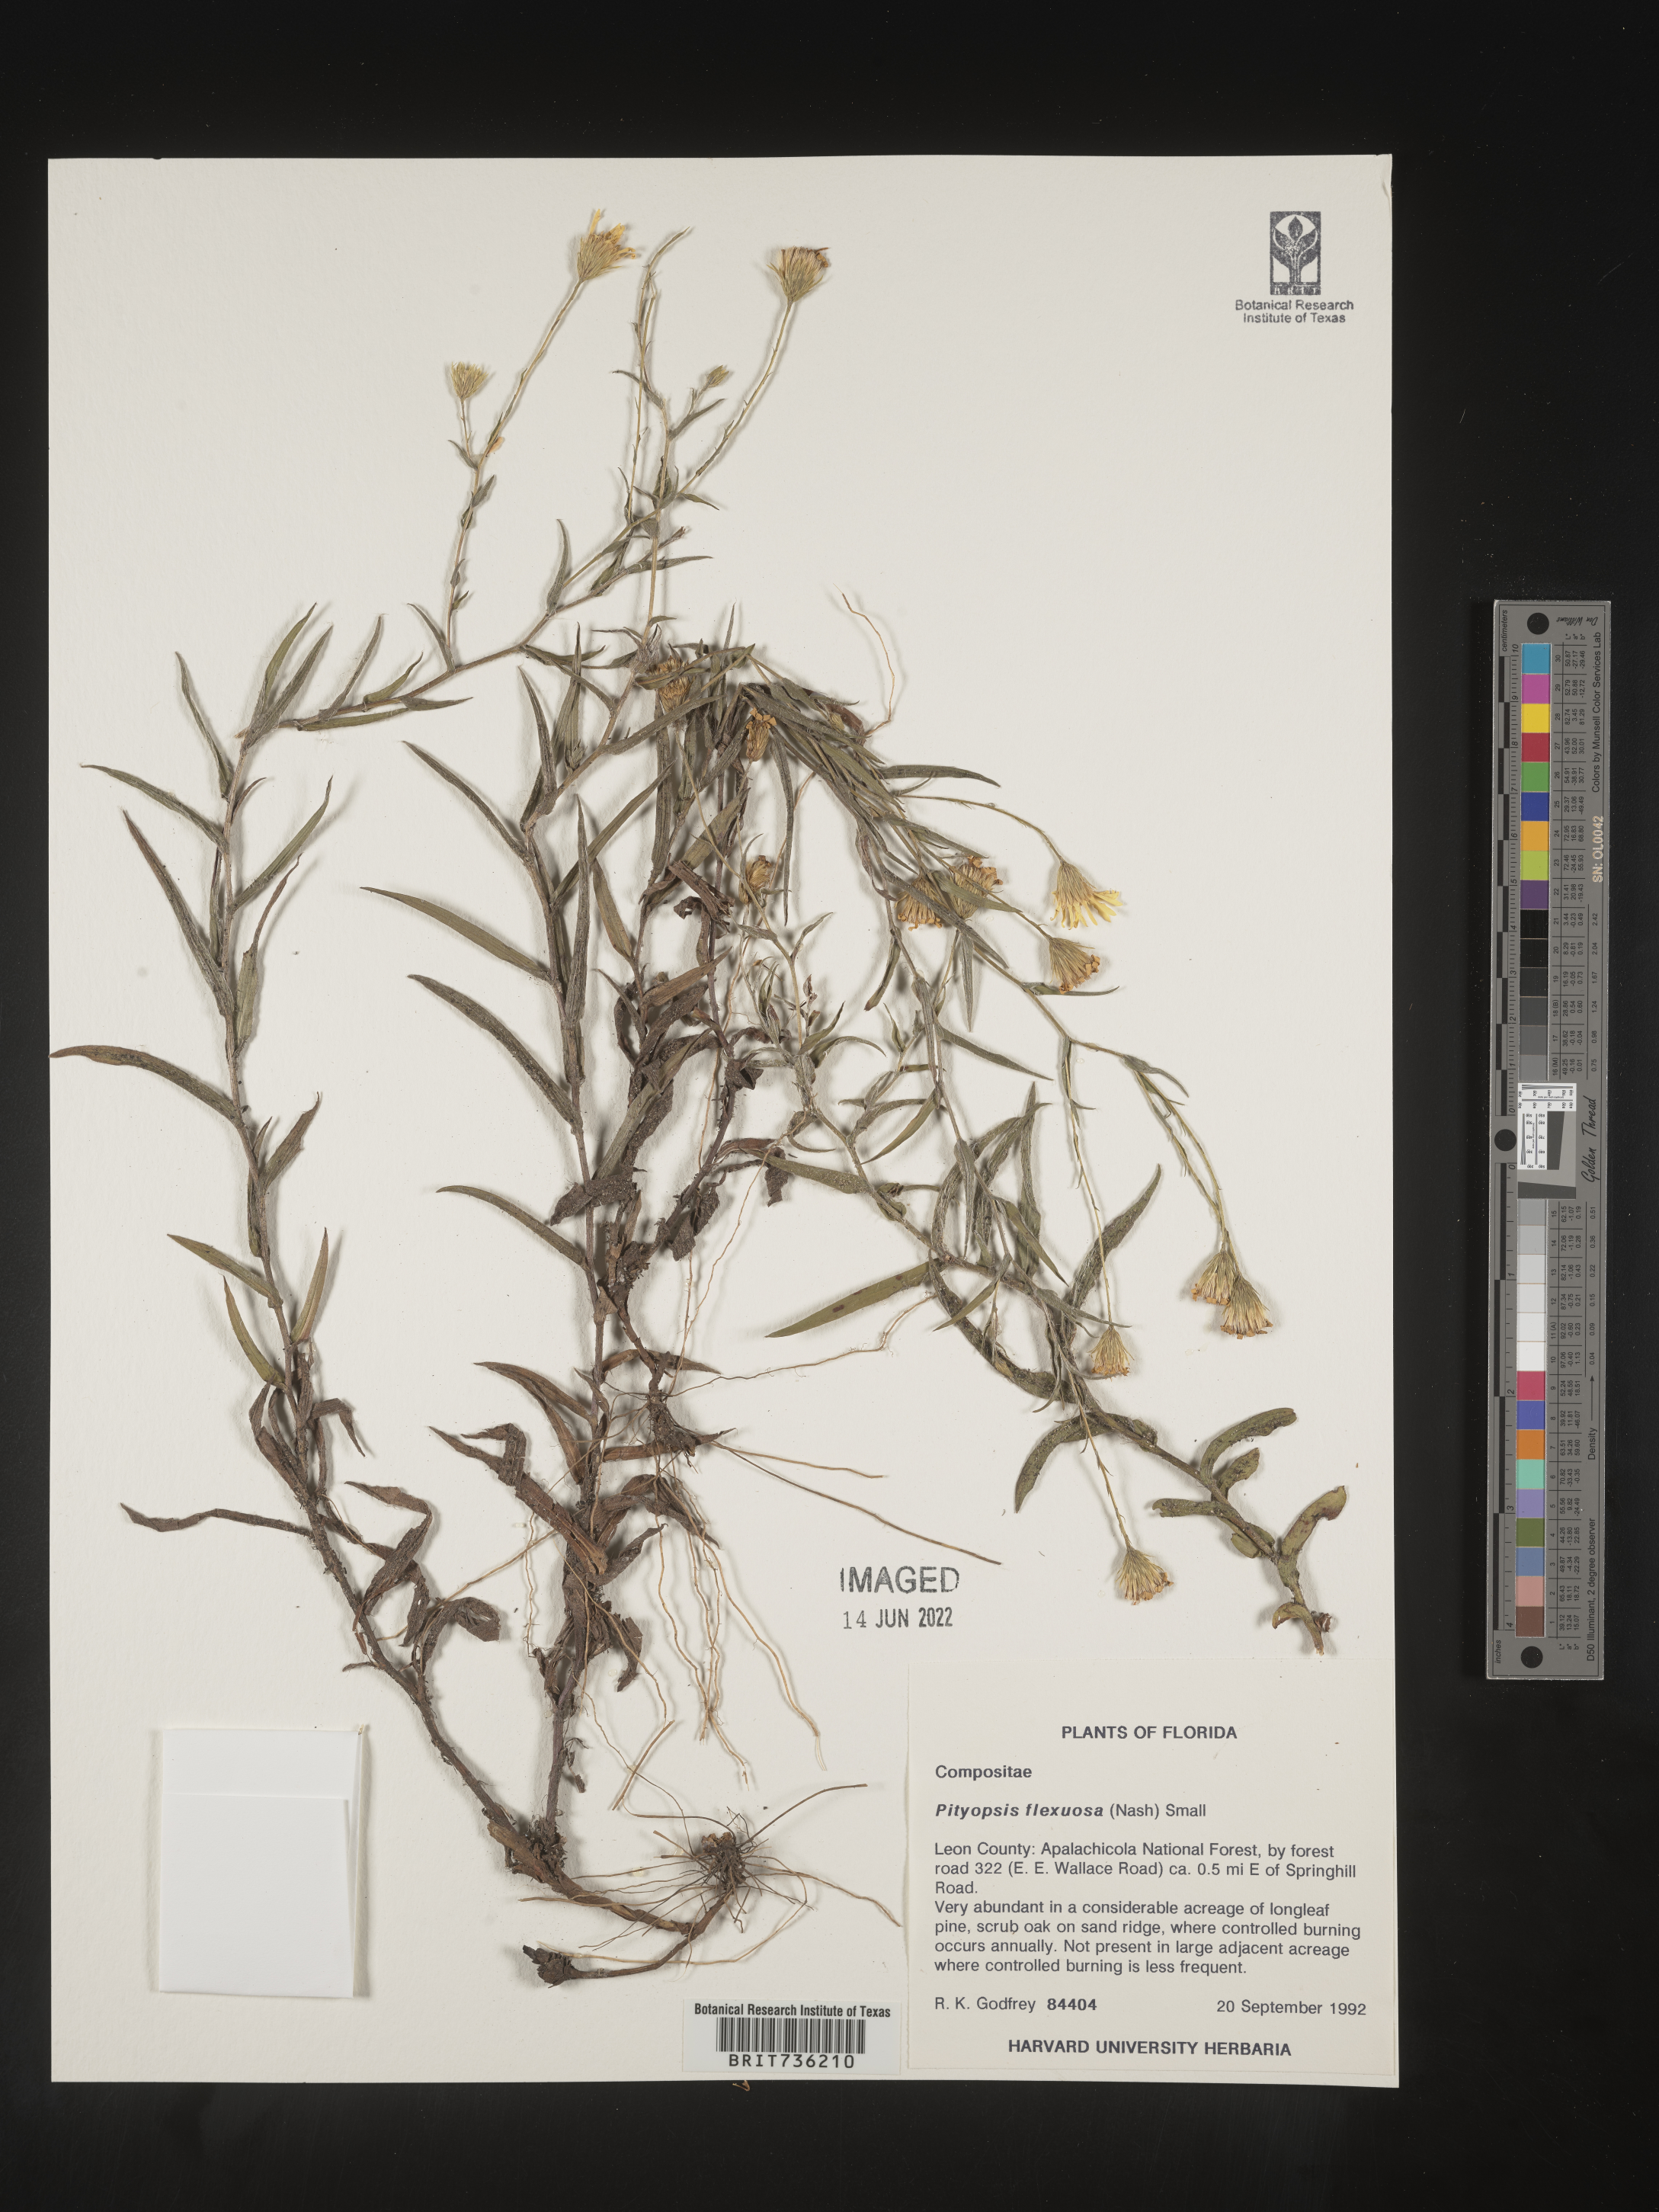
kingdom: Plantae
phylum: Tracheophyta
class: Magnoliopsida
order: Asterales
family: Asteraceae
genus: Pityopsis
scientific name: Pityopsis flexuosa
